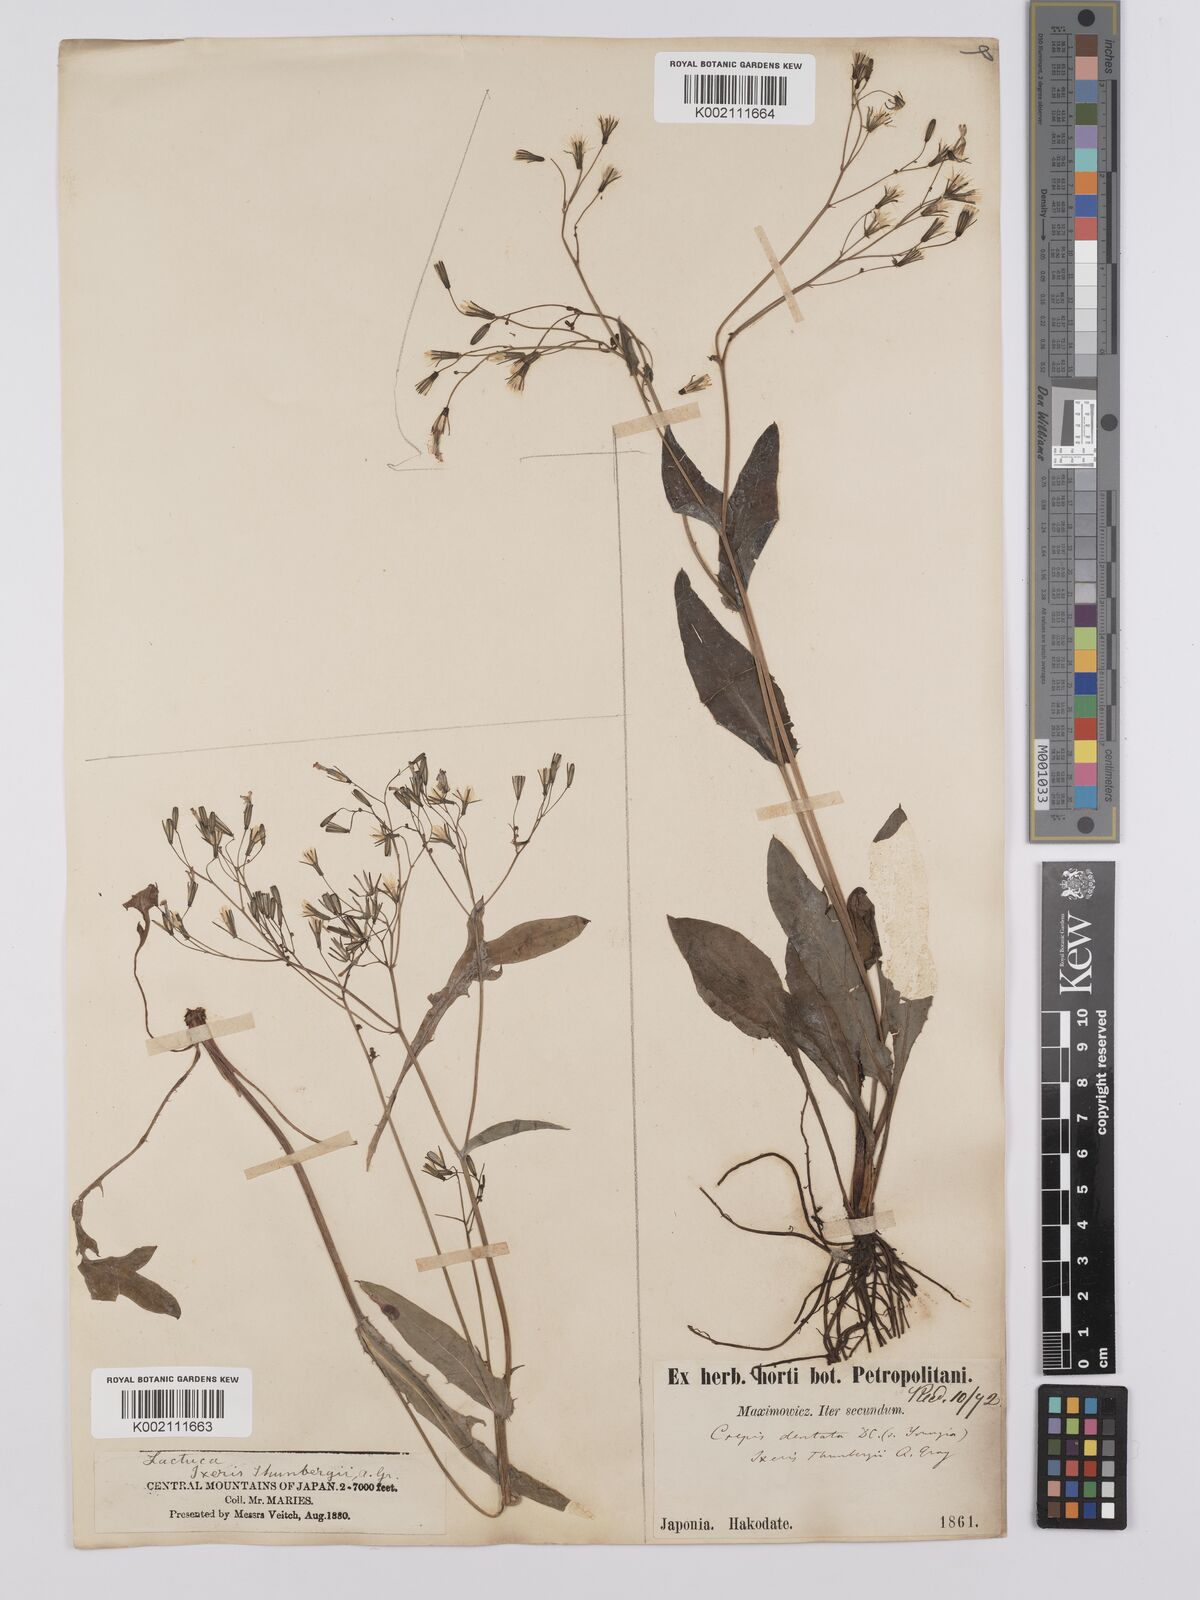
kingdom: Plantae
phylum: Tracheophyta
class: Magnoliopsida
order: Asterales
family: Asteraceae
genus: Ixeridium
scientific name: Ixeridium dentatum
